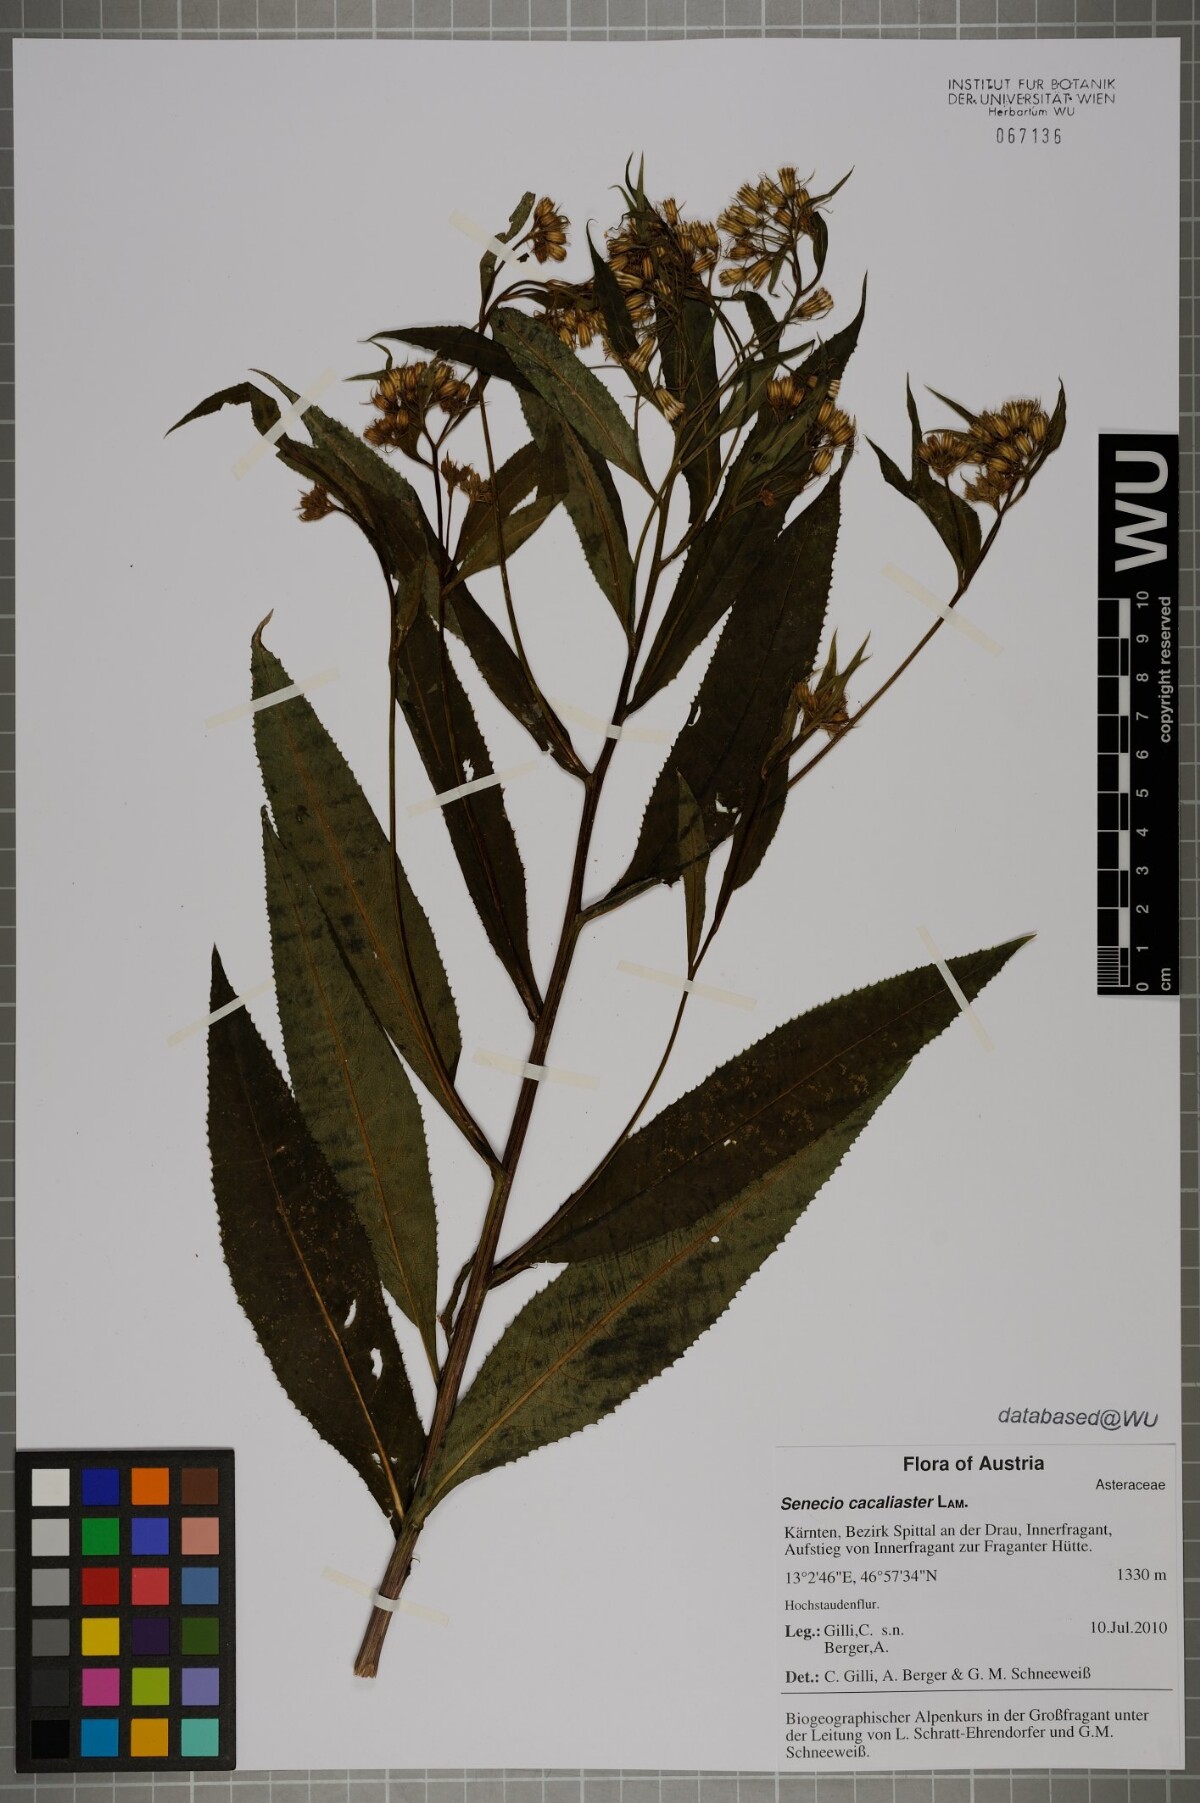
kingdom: Plantae
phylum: Tracheophyta
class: Magnoliopsida
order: Asterales
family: Asteraceae
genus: Senecio
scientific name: Senecio cacaliaster
